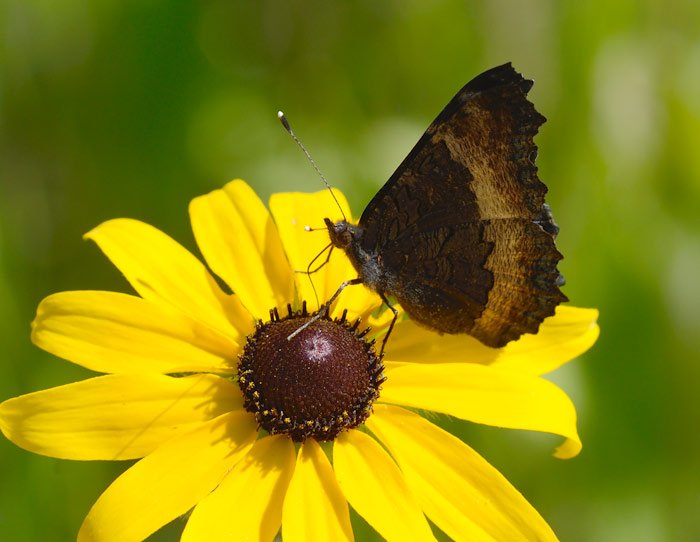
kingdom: Animalia
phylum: Arthropoda
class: Insecta
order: Lepidoptera
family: Nymphalidae
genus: Aglais
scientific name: Aglais milberti
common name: Milbert's Tortoiseshell
